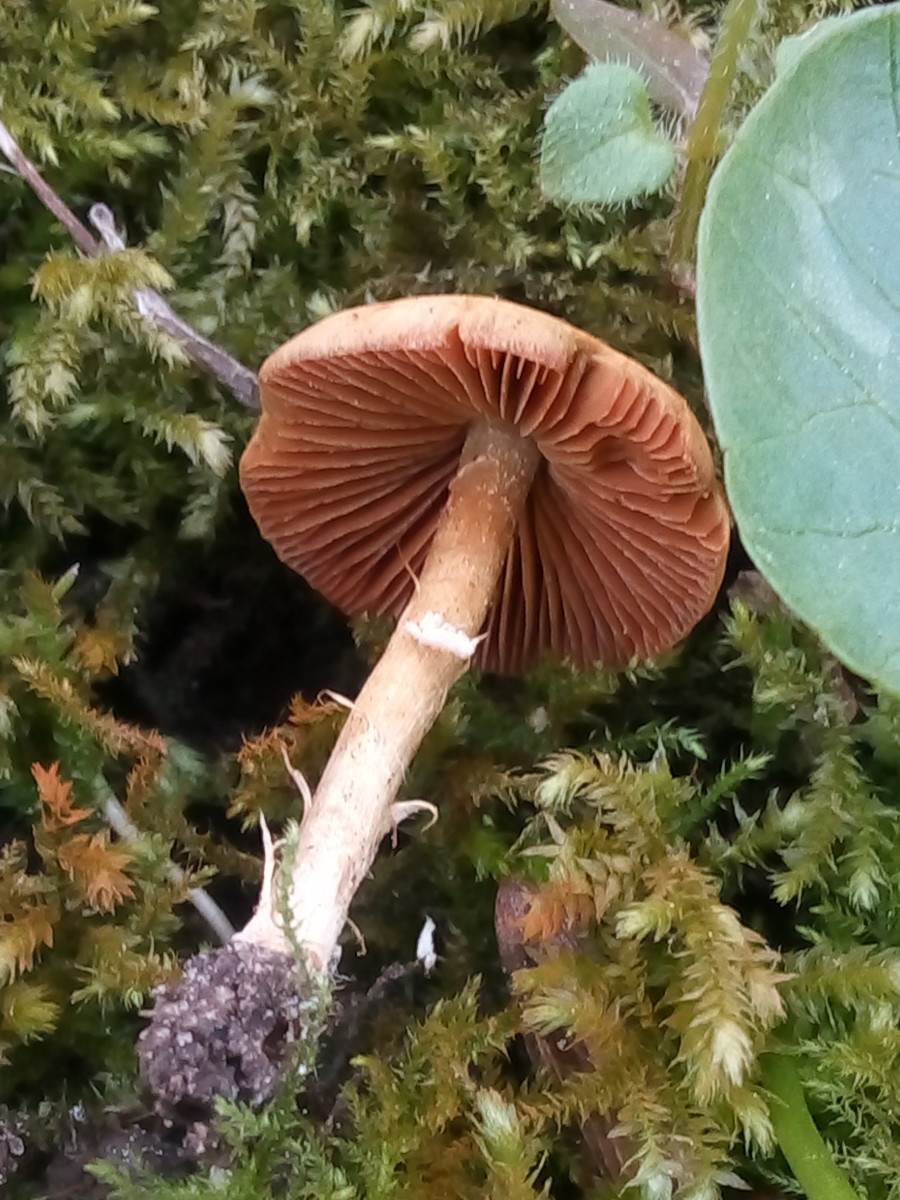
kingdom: Fungi
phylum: Basidiomycota
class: Agaricomycetes
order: Agaricales
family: Bolbitiaceae
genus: Conocybe
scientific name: Conocybe aporos
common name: tidlig dansehat
